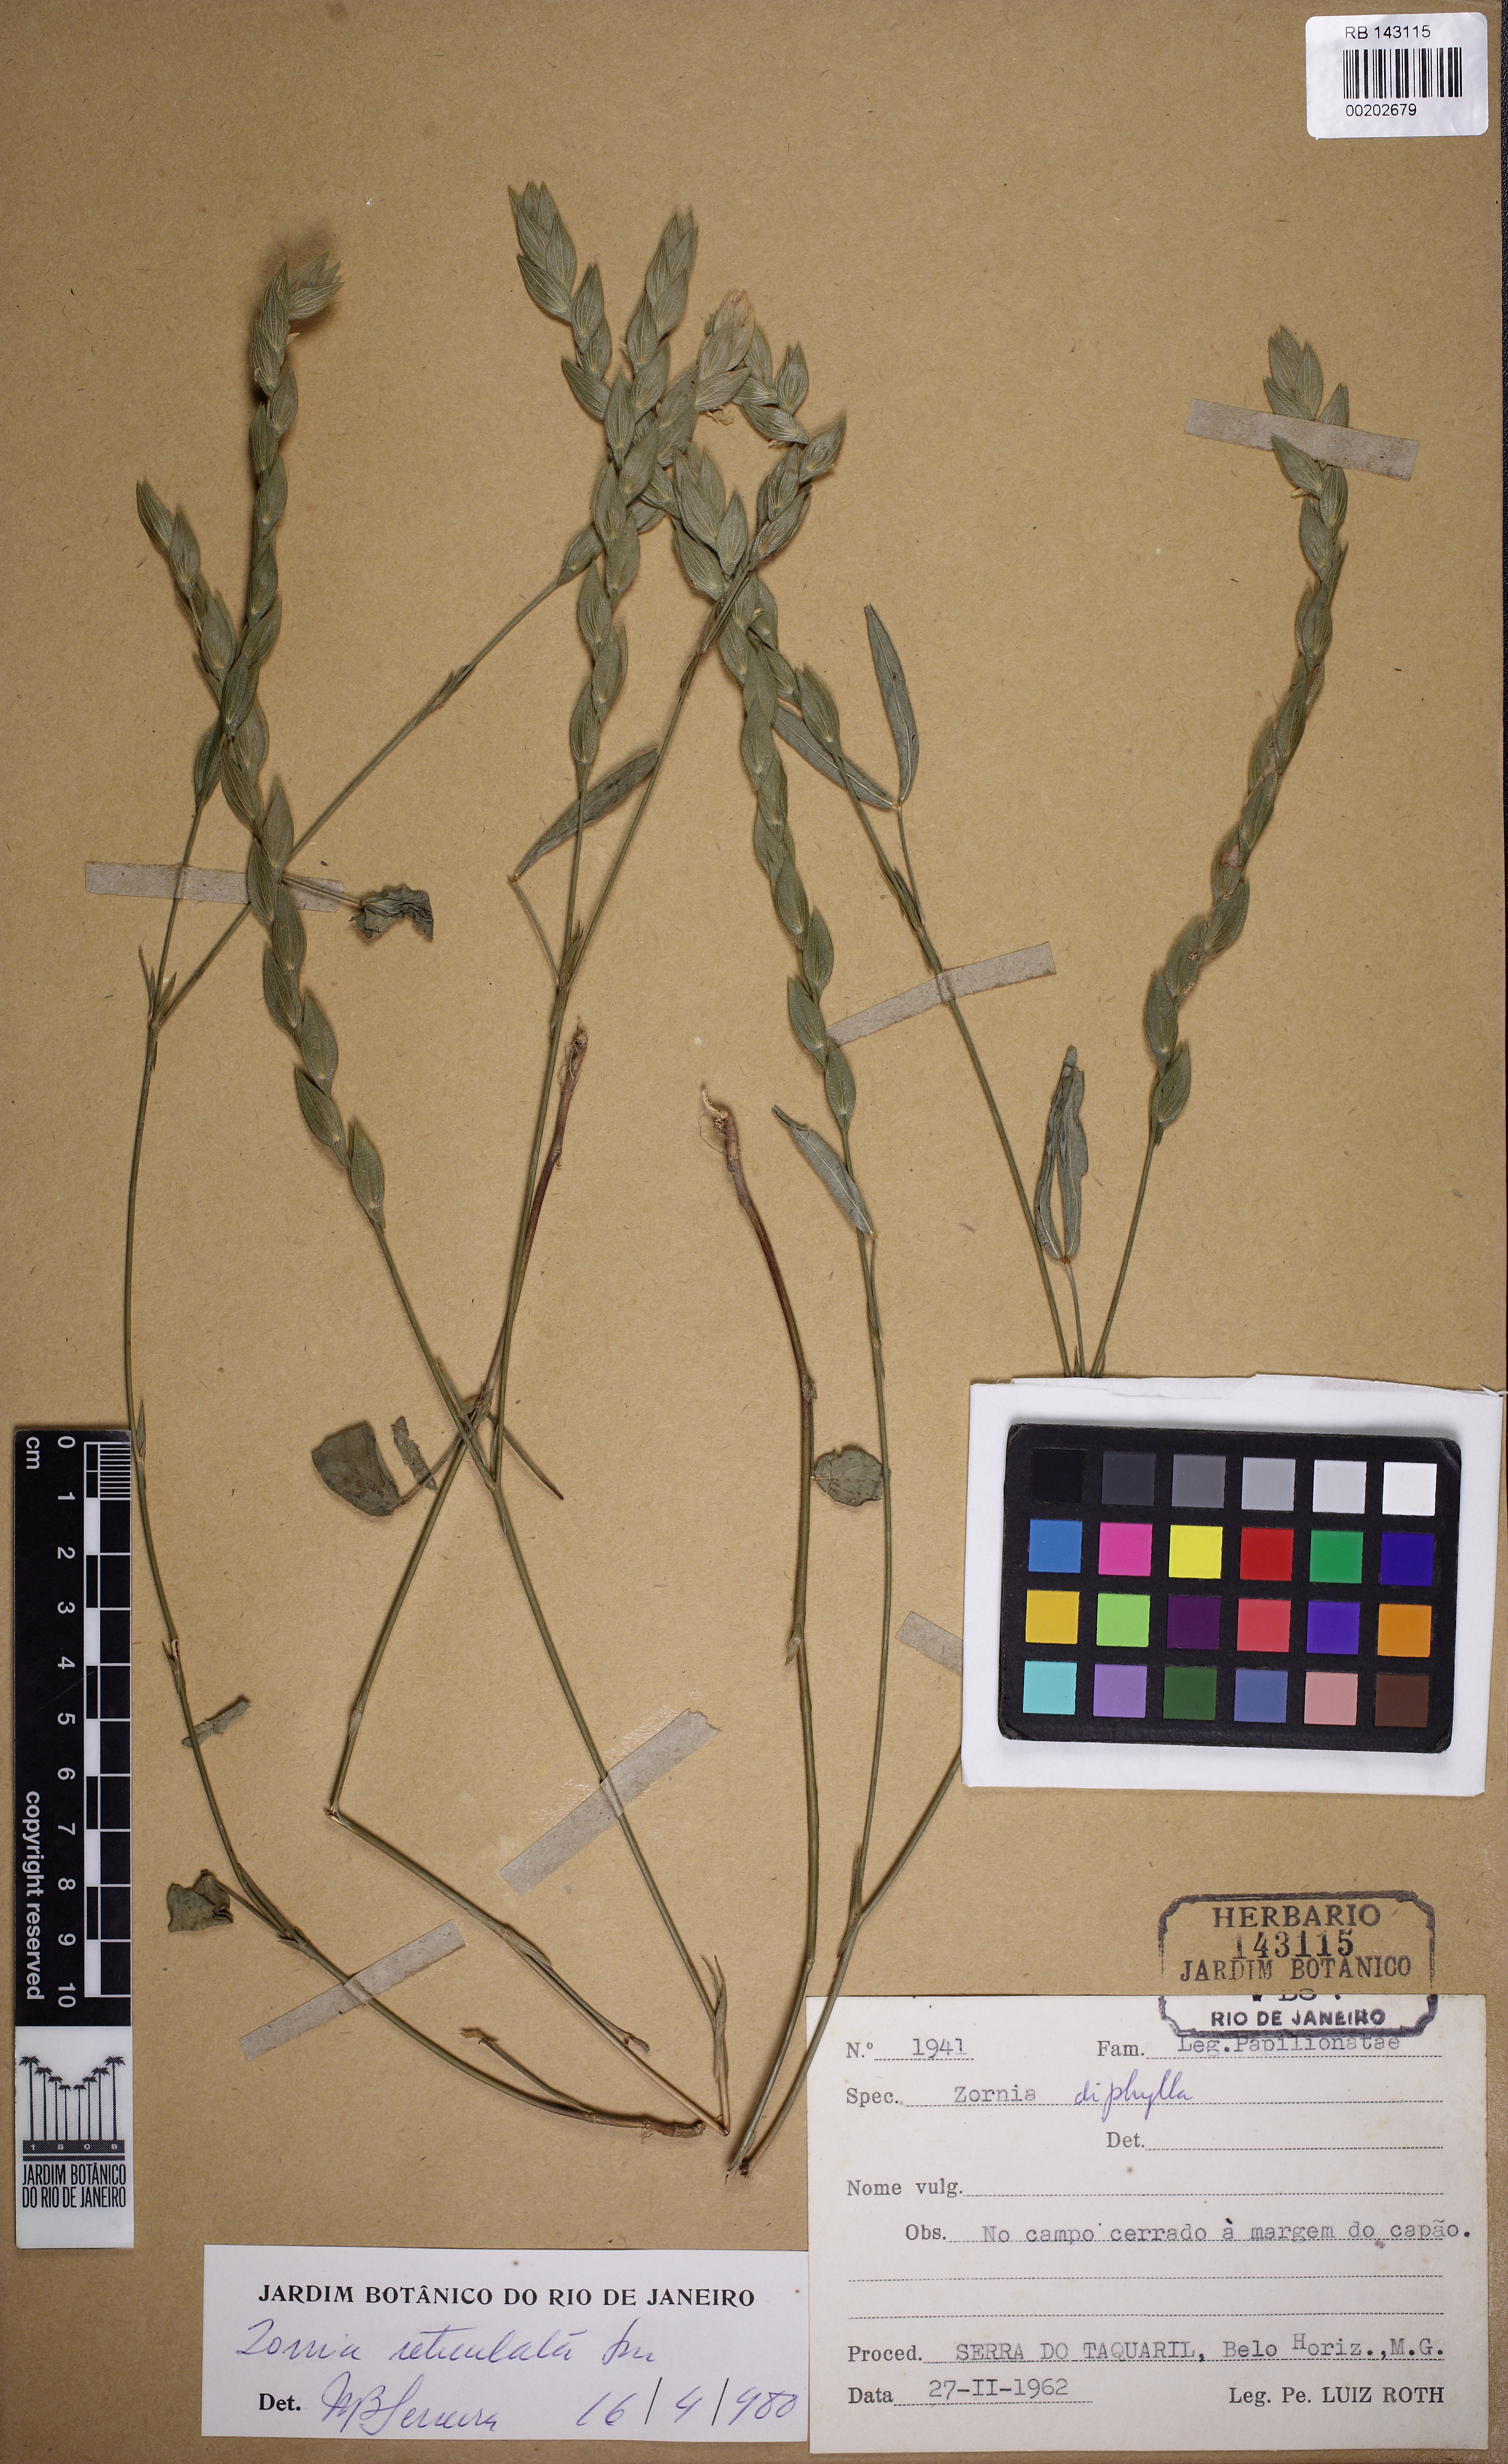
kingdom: Plantae
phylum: Tracheophyta
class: Magnoliopsida
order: Fabales
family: Fabaceae
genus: Zornia
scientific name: Zornia diphylla
